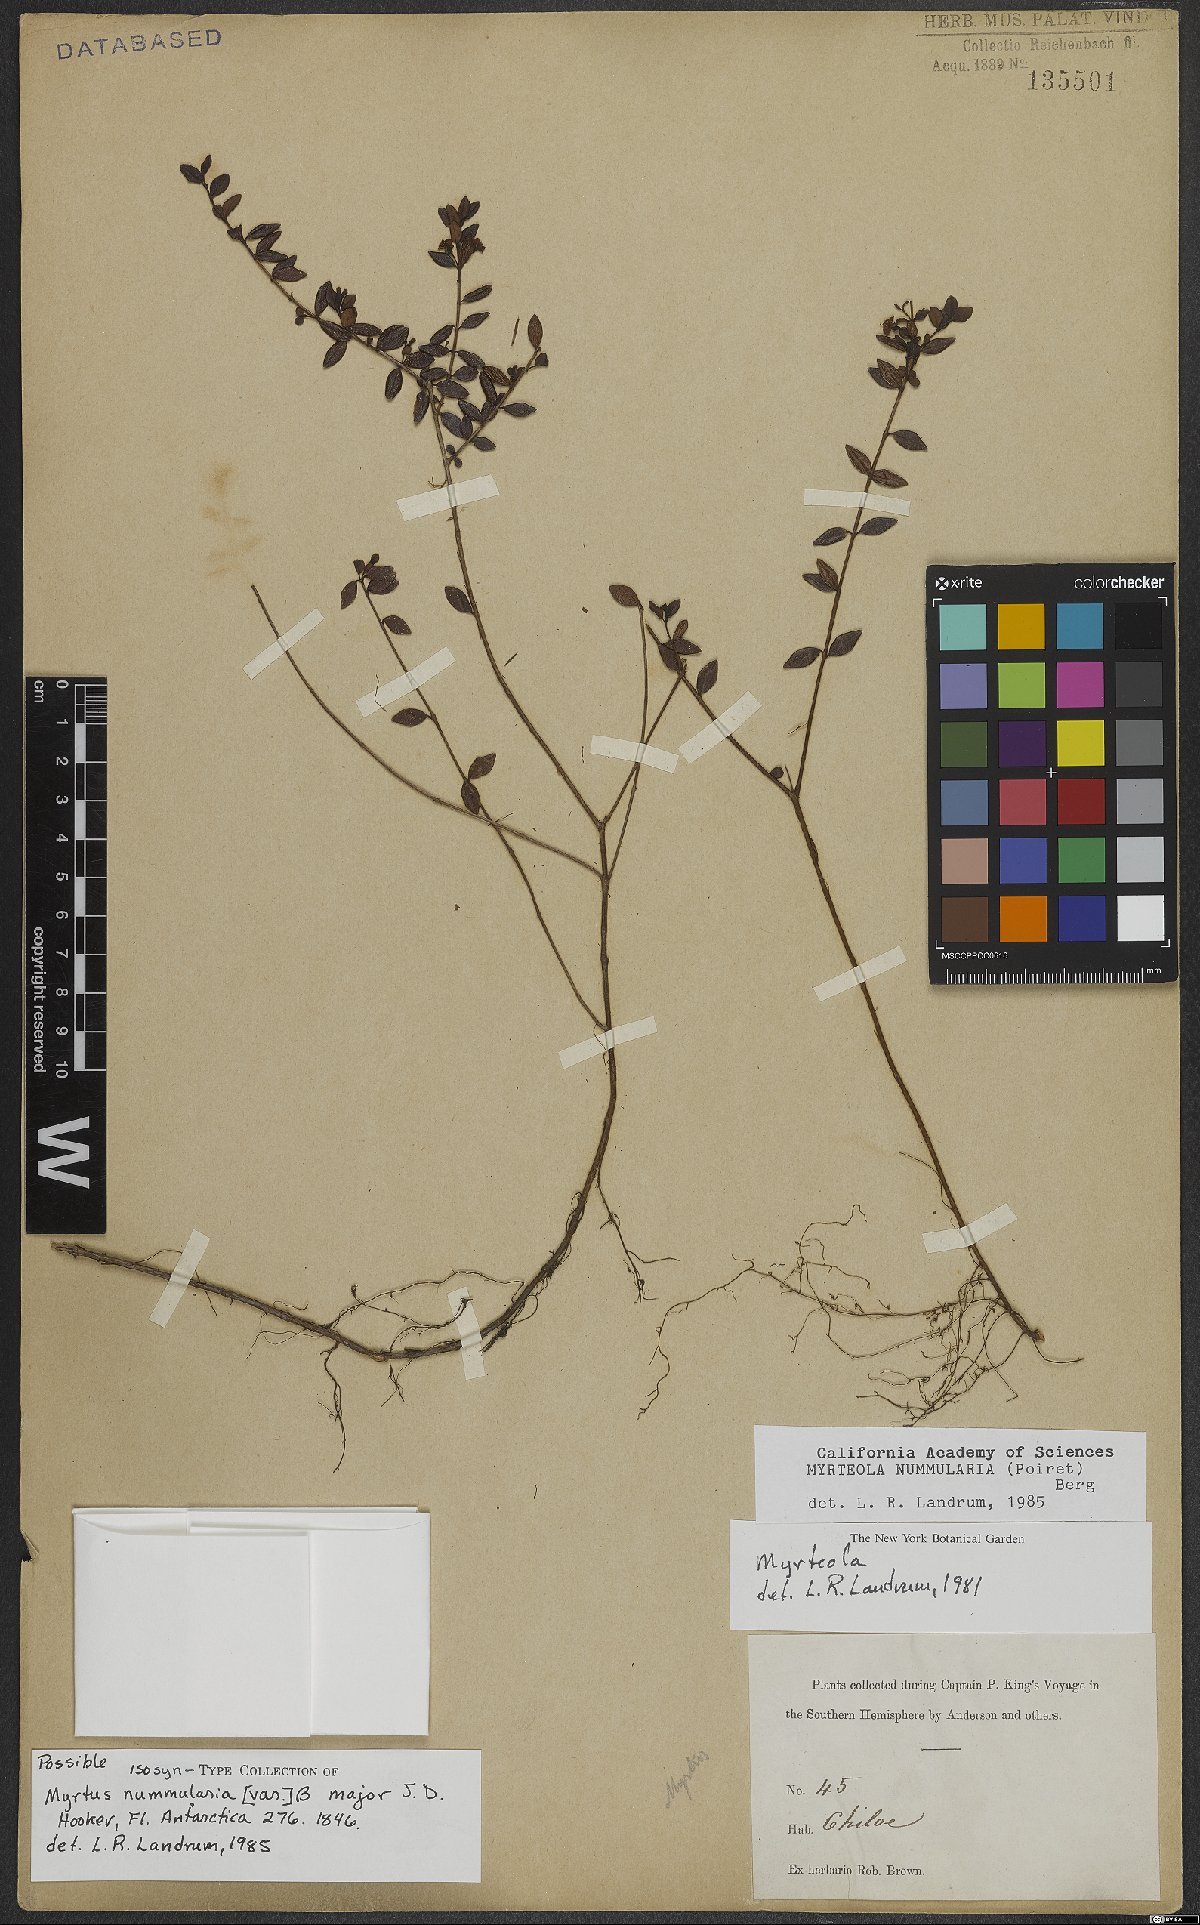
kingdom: Plantae
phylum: Tracheophyta
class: Magnoliopsida
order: Myrtales
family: Myrtaceae
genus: Myrteola
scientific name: Myrteola nummularia
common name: Cranberry-myrtle
